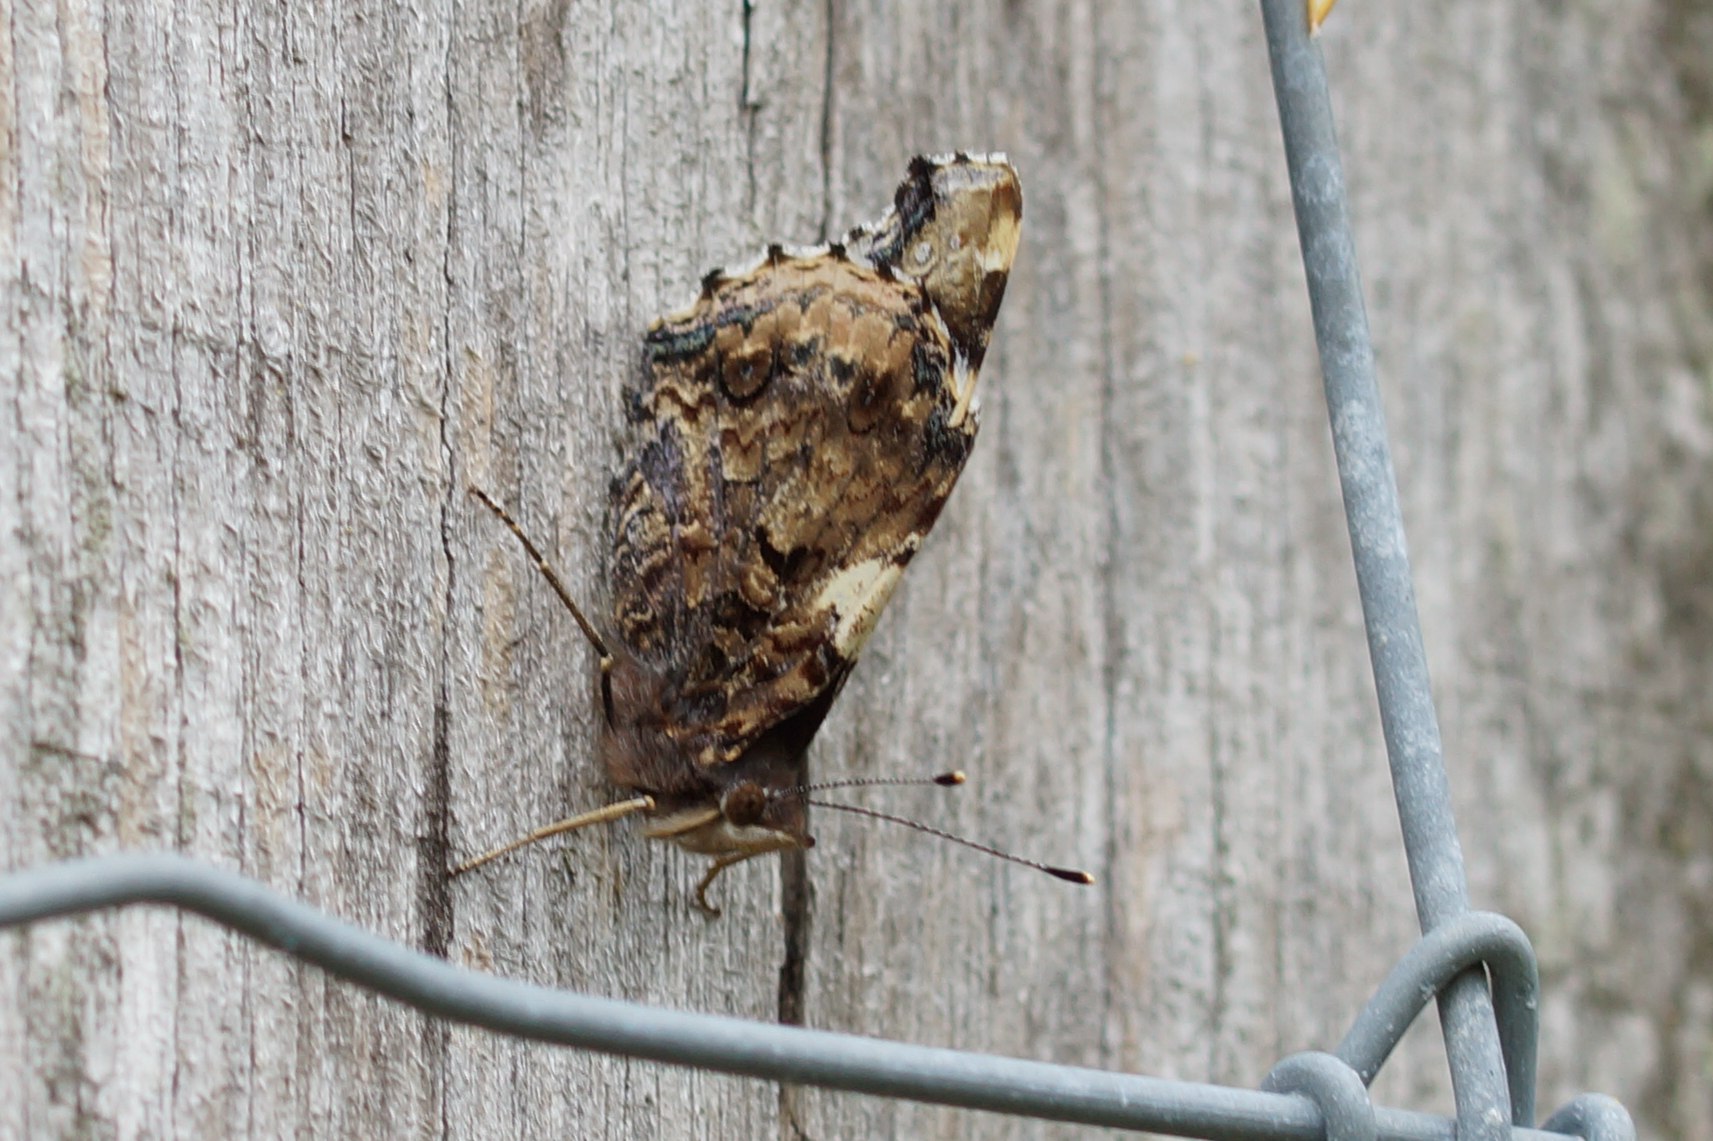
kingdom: Animalia
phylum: Arthropoda
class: Insecta
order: Lepidoptera
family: Nymphalidae
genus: Vanessa
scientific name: Vanessa atalanta
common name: Admiral
